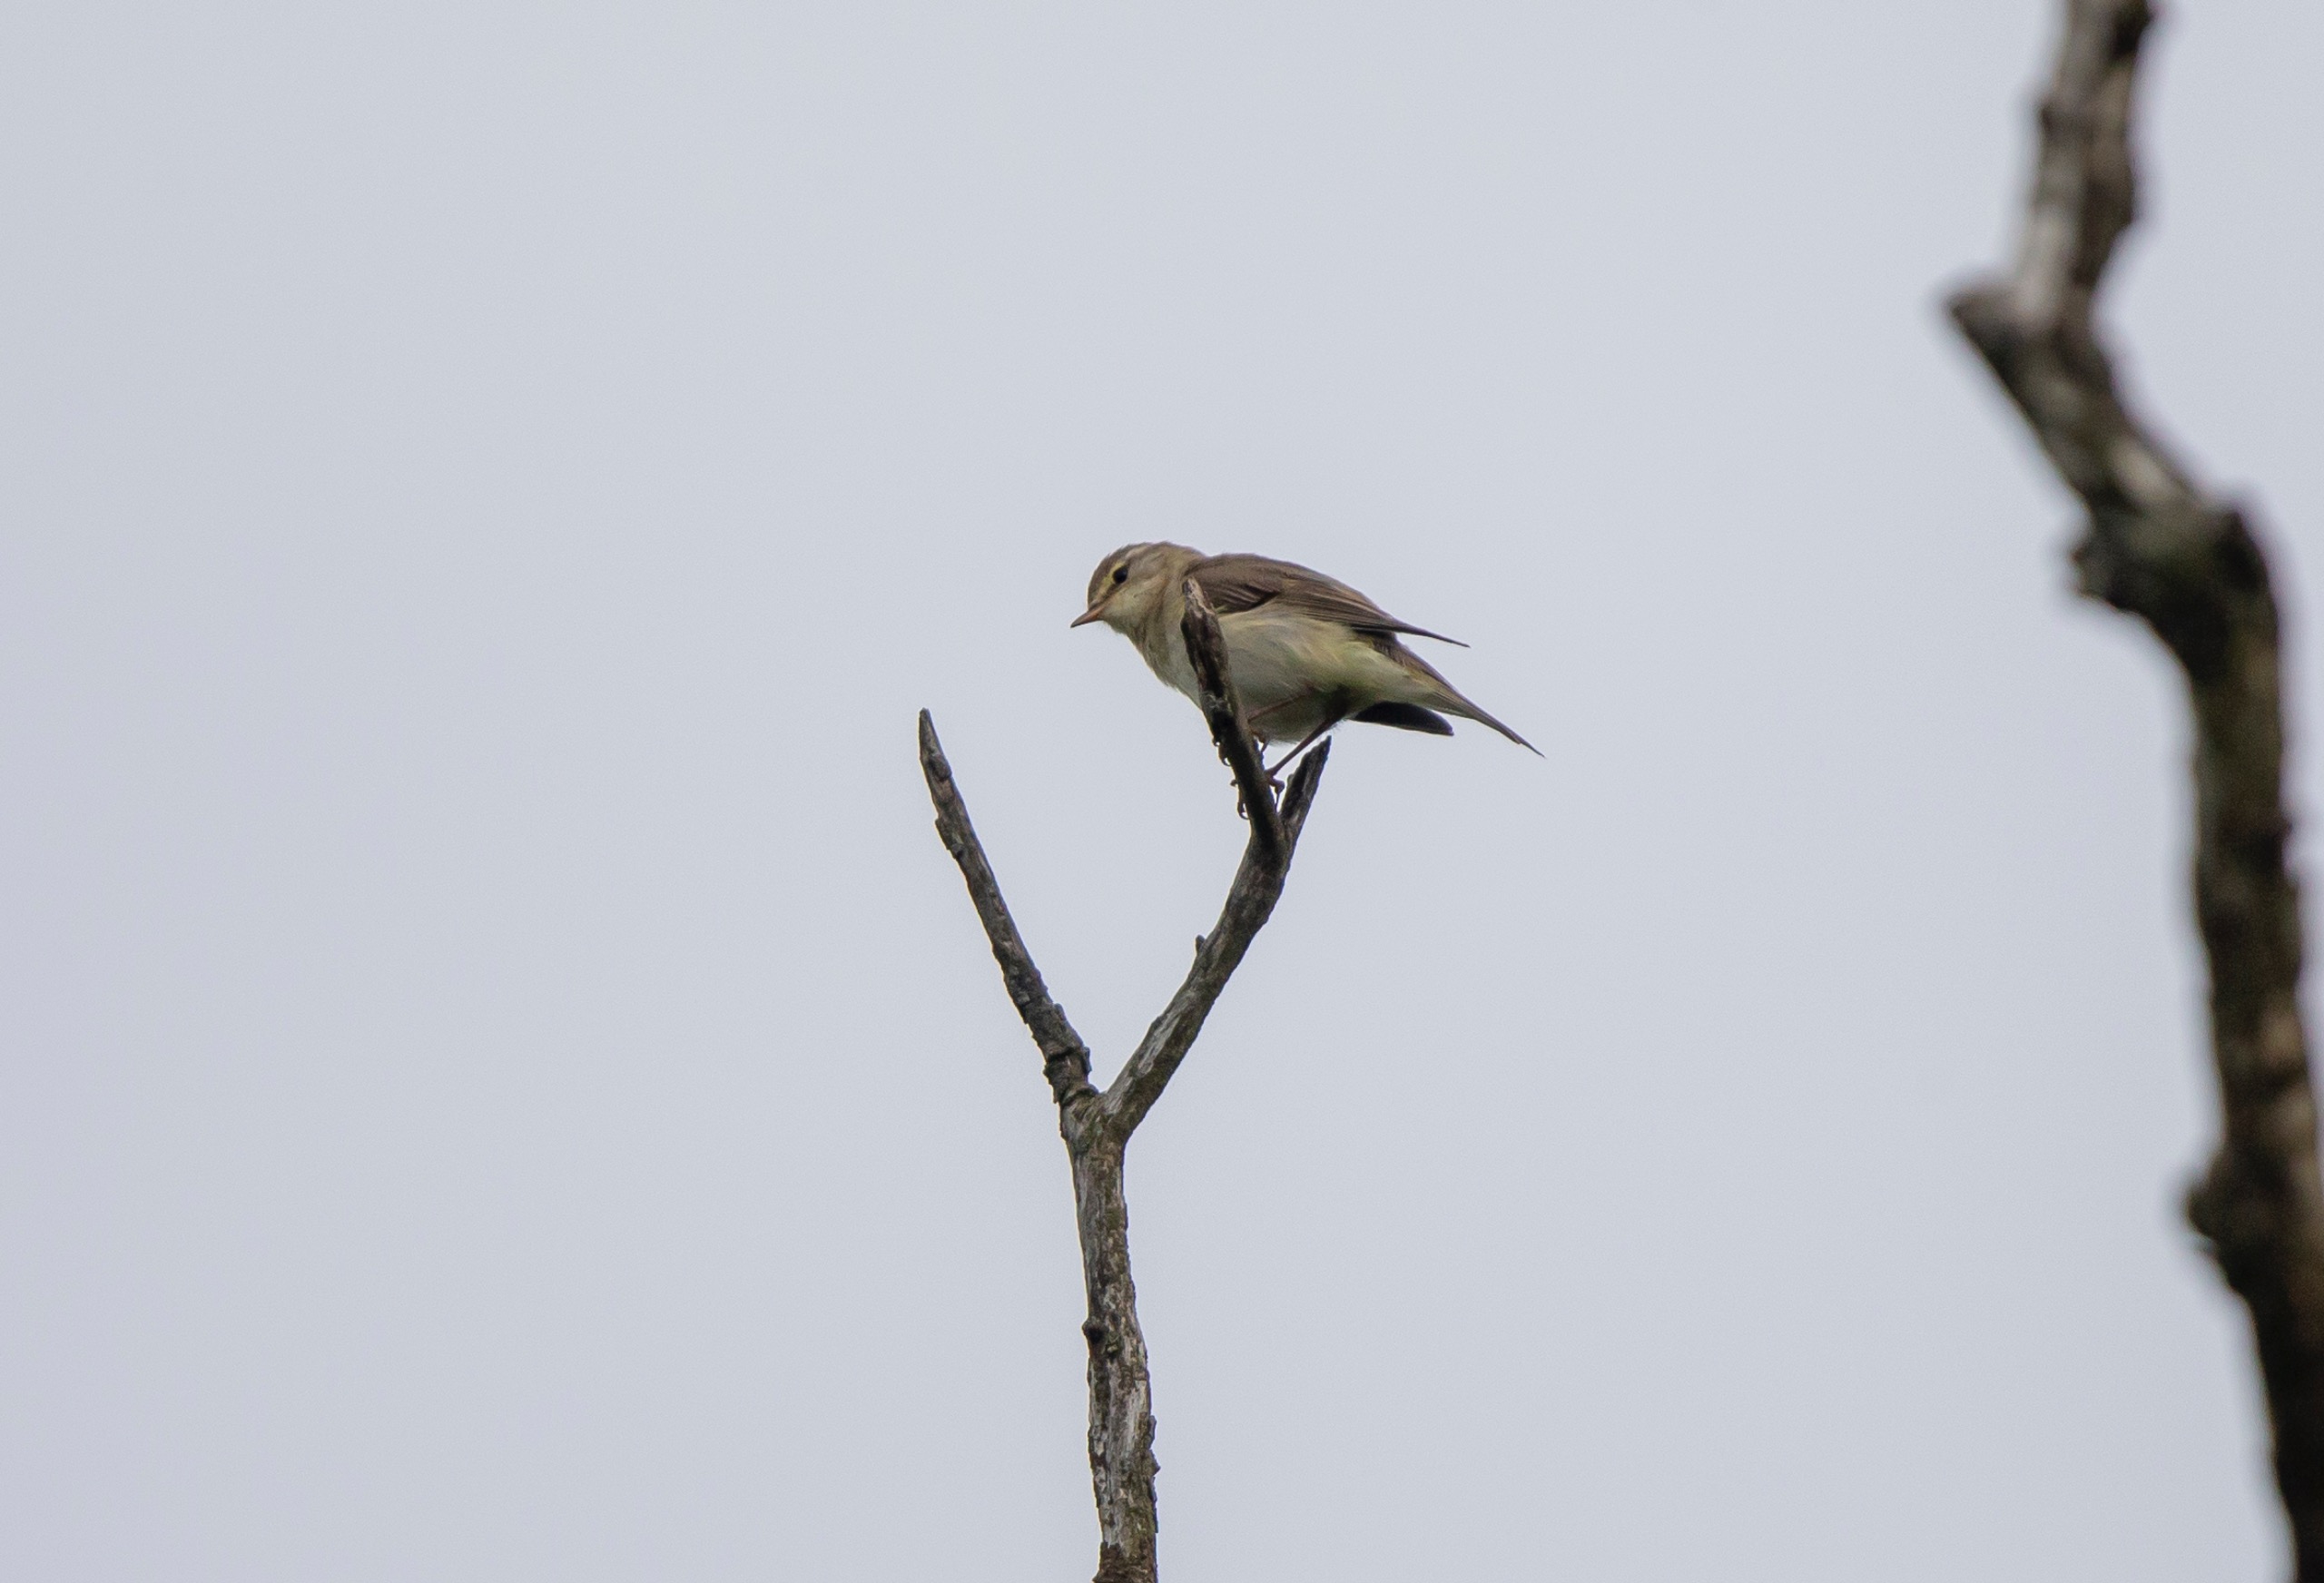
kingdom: Animalia
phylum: Chordata
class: Aves
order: Passeriformes
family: Phylloscopidae
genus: Phylloscopus
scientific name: Phylloscopus trochilus
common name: Løvsanger
